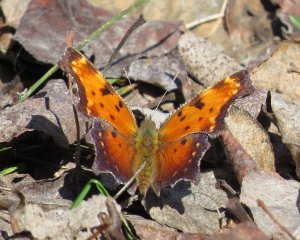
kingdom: Animalia
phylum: Arthropoda
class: Insecta
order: Lepidoptera
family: Nymphalidae
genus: Polygonia
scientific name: Polygonia progne
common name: Gray Comma
